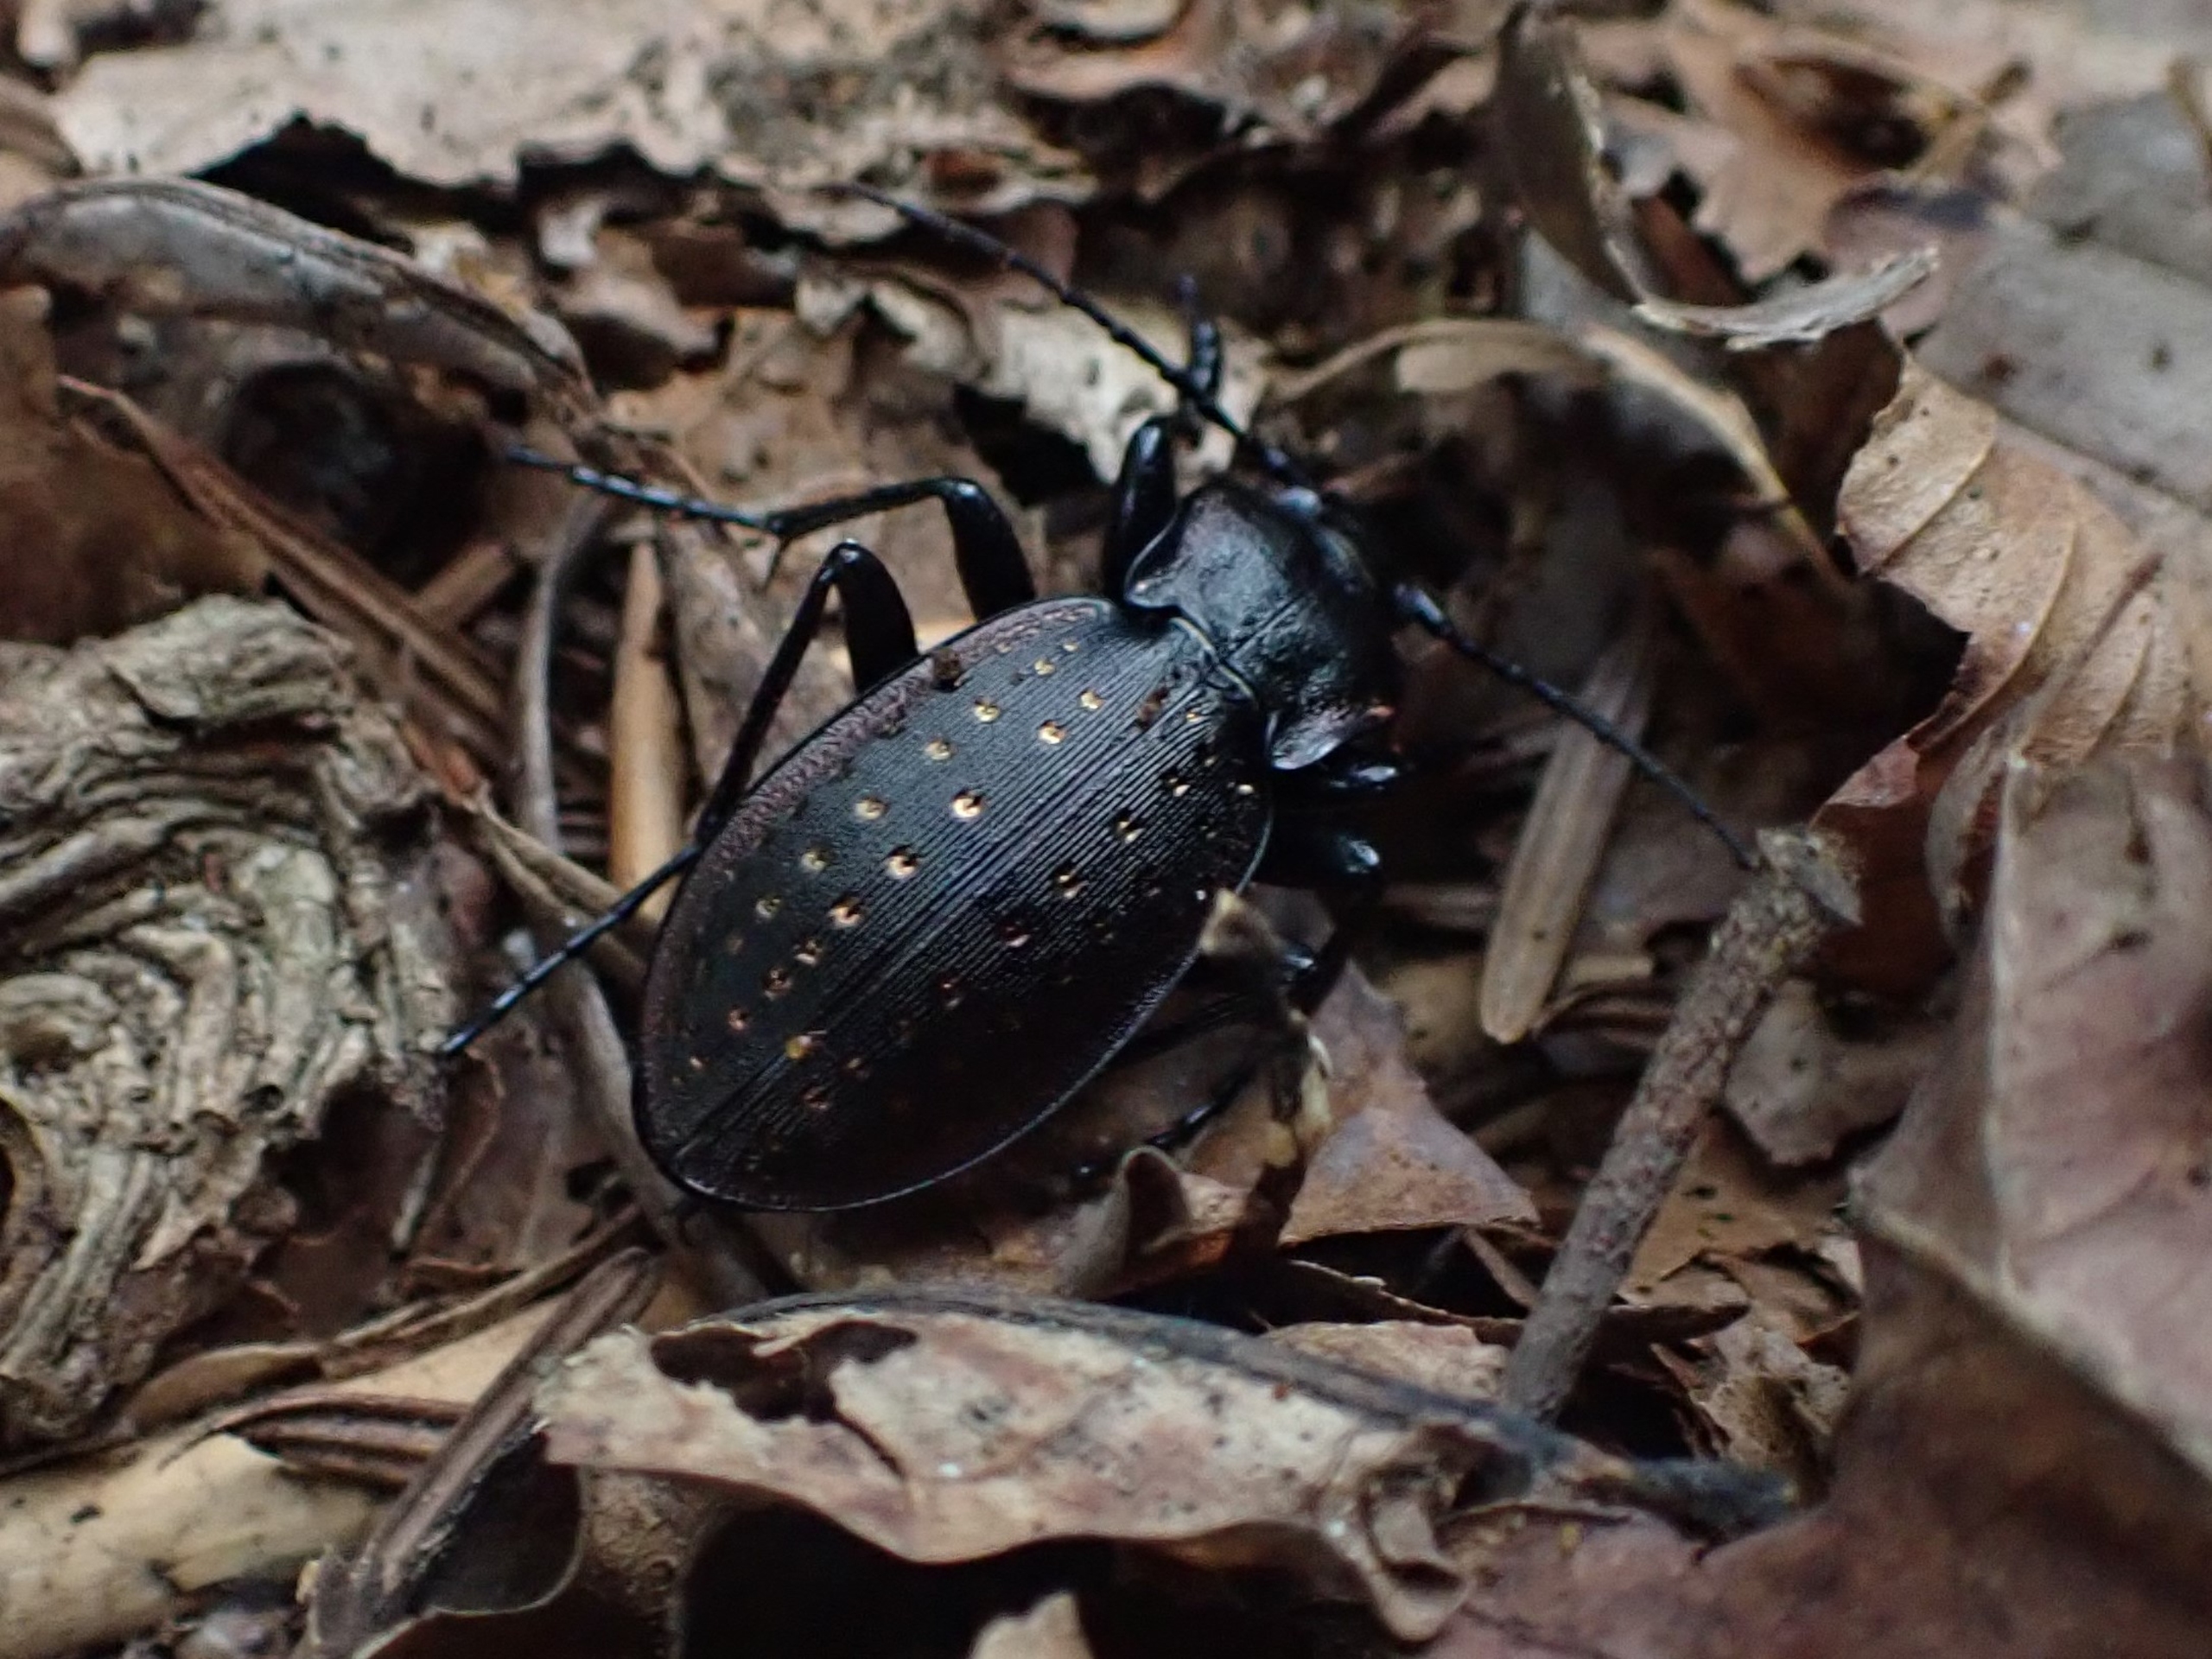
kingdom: Animalia
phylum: Arthropoda
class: Insecta
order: Coleoptera
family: Carabidae
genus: Carabus
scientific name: Carabus hortensis
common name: Guldpletløber
